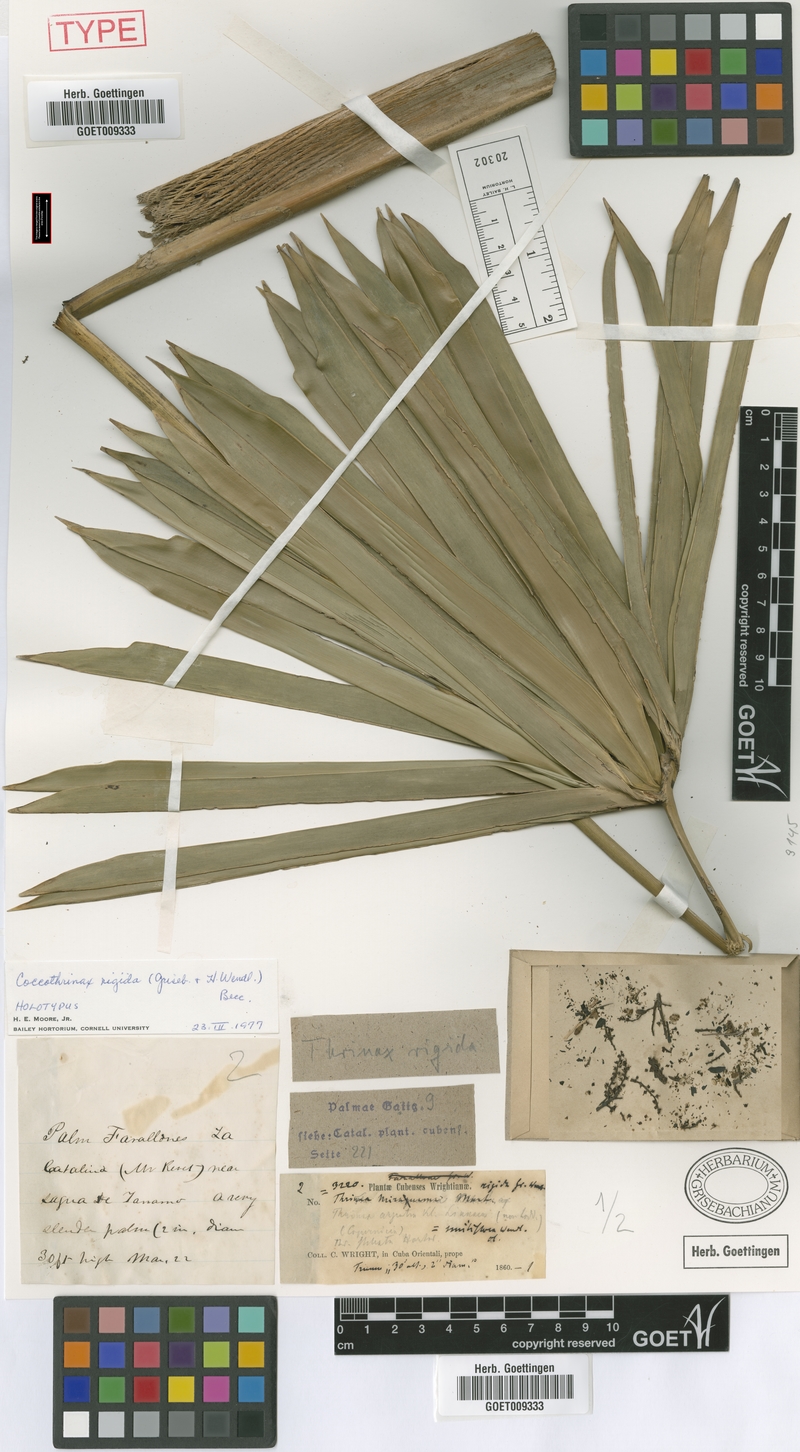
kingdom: Plantae
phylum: Tracheophyta
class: Liliopsida
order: Arecales
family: Arecaceae
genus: Coccothrinax
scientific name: Coccothrinax rigida
